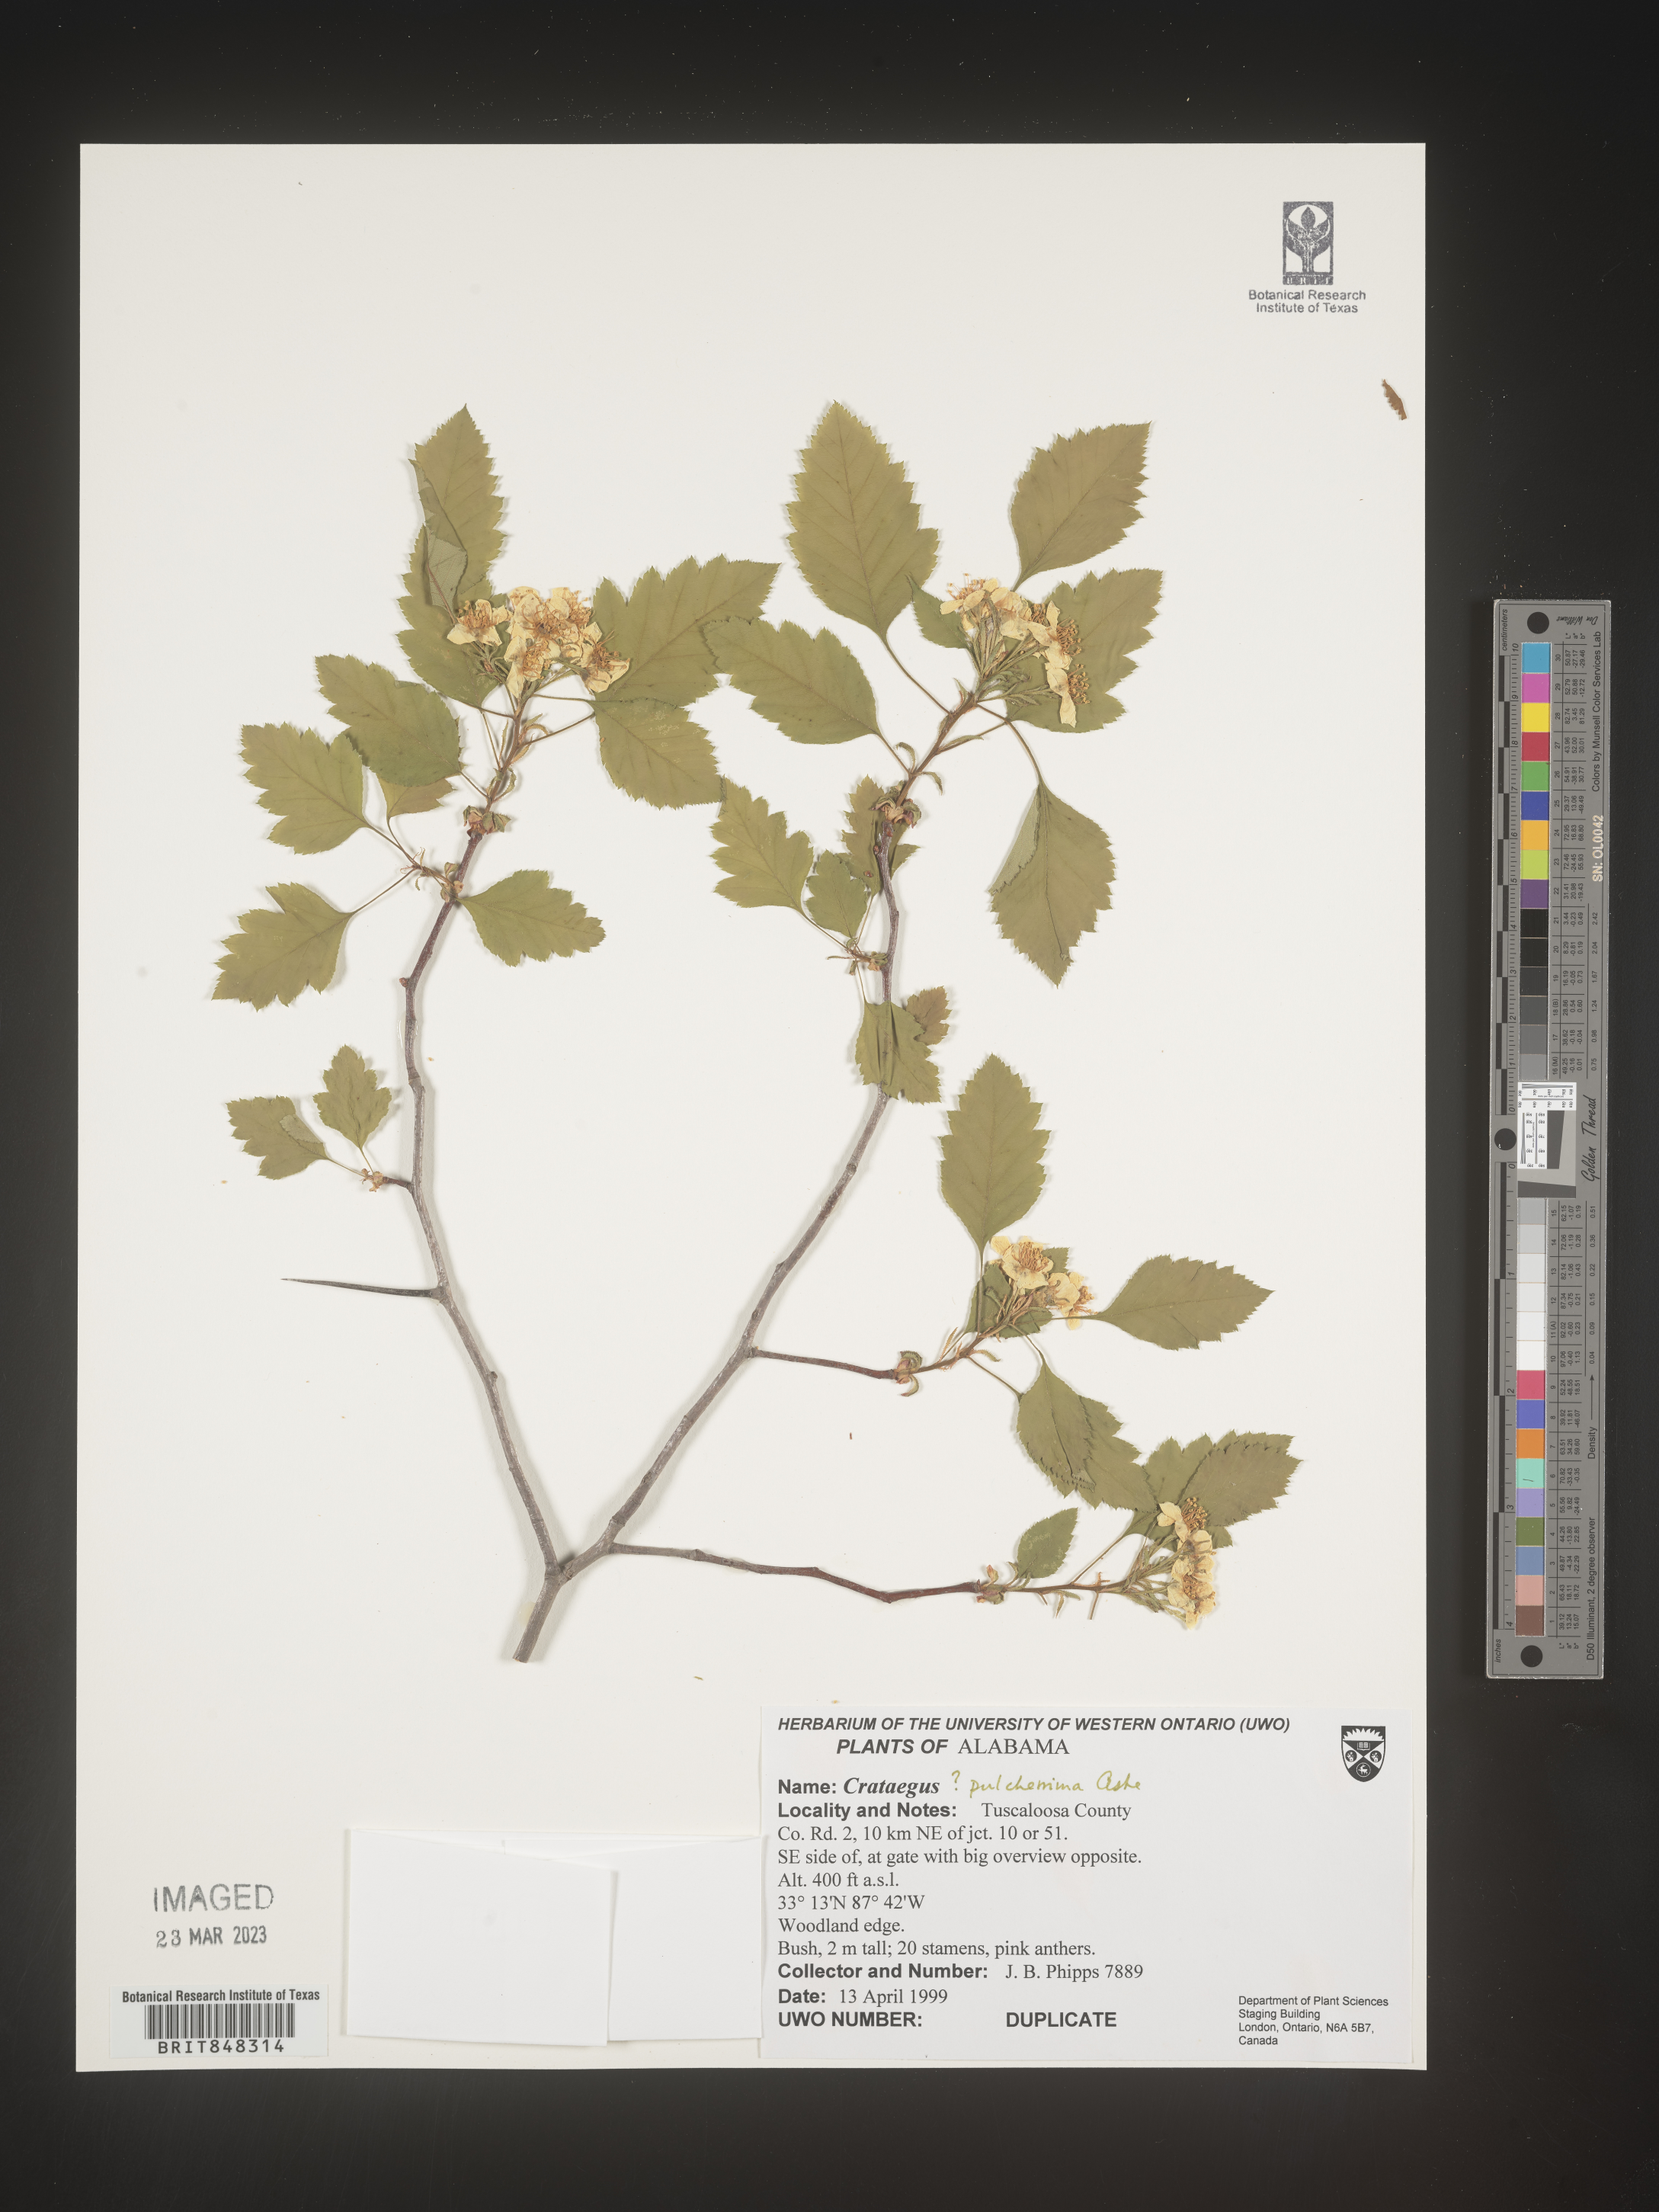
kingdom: Plantae
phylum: Tracheophyta
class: Magnoliopsida
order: Rosales
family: Rosaceae
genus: Crataegus
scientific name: Crataegus pulcherrima
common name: Beautiful hawthorn
